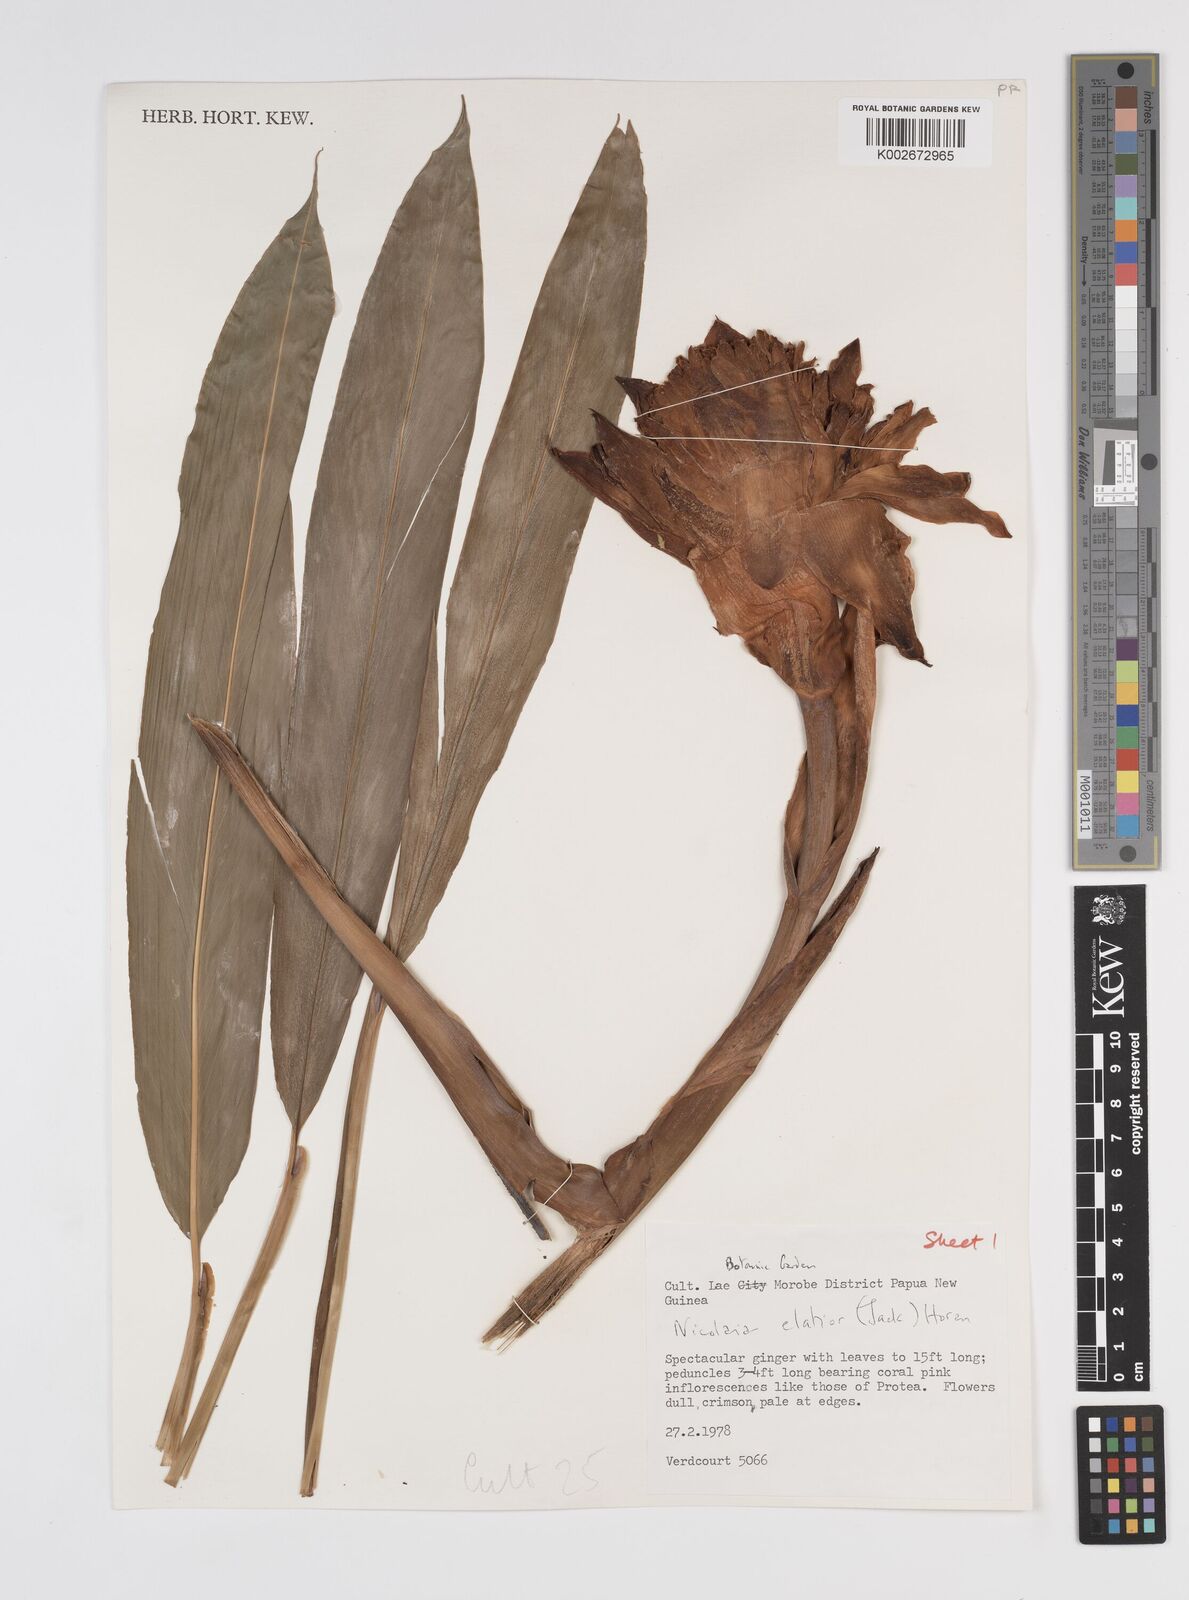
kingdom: Plantae
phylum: Tracheophyta
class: Liliopsida
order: Zingiberales
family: Zingiberaceae
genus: Etlingera
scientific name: Etlingera elatior
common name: Philippine waxflower
